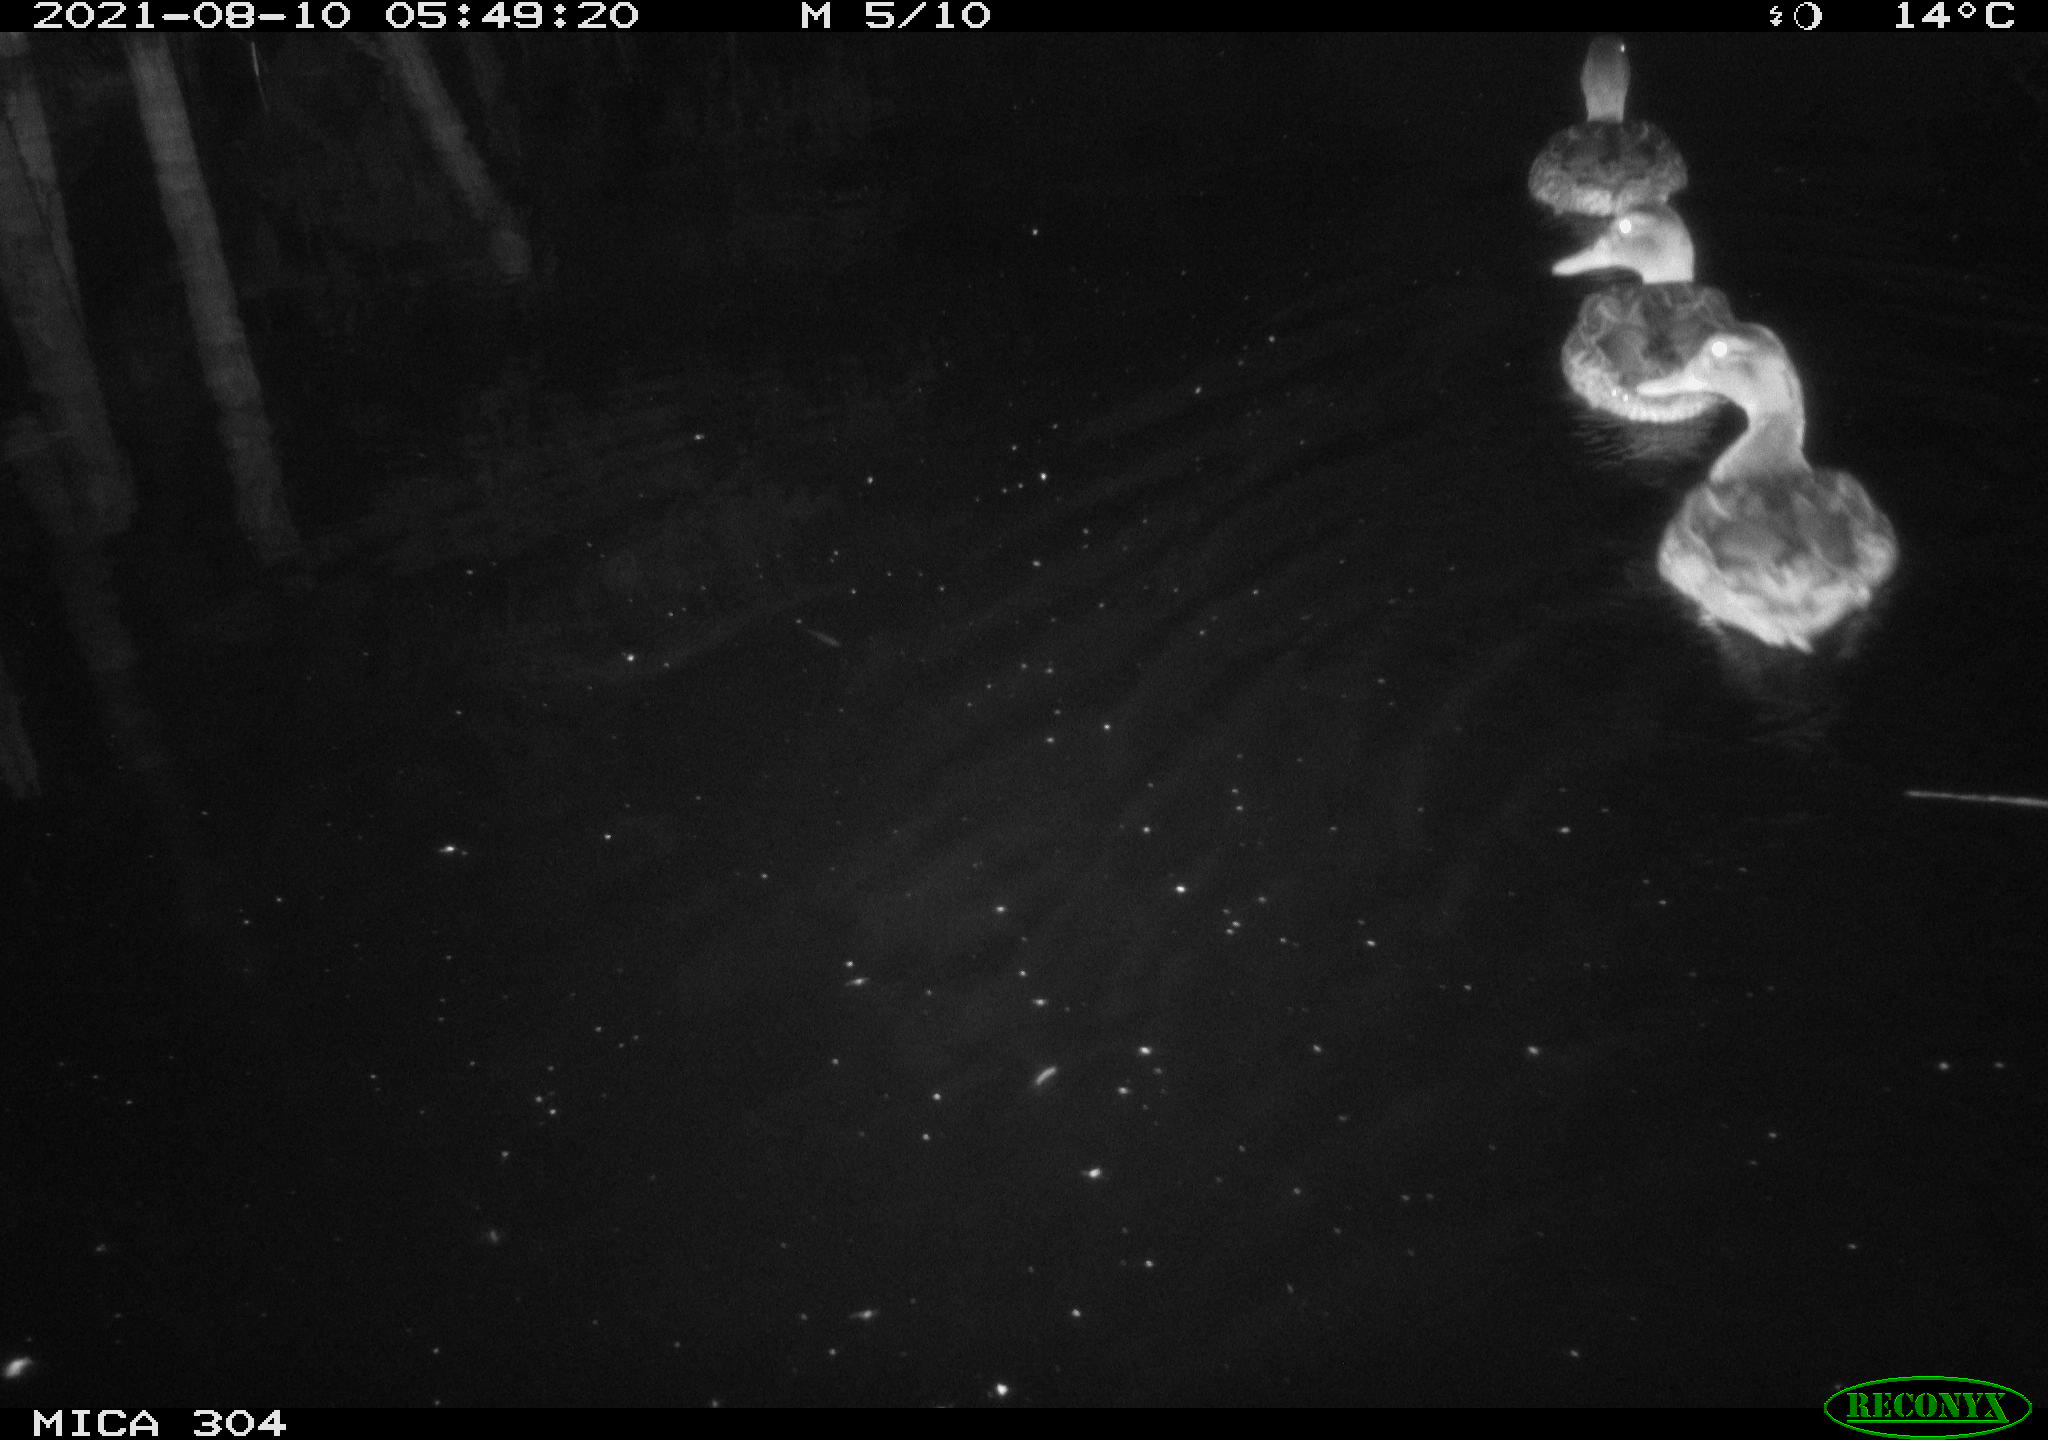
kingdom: Animalia
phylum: Chordata
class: Aves
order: Anseriformes
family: Anatidae
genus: Anas
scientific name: Anas platyrhynchos
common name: Mallard
